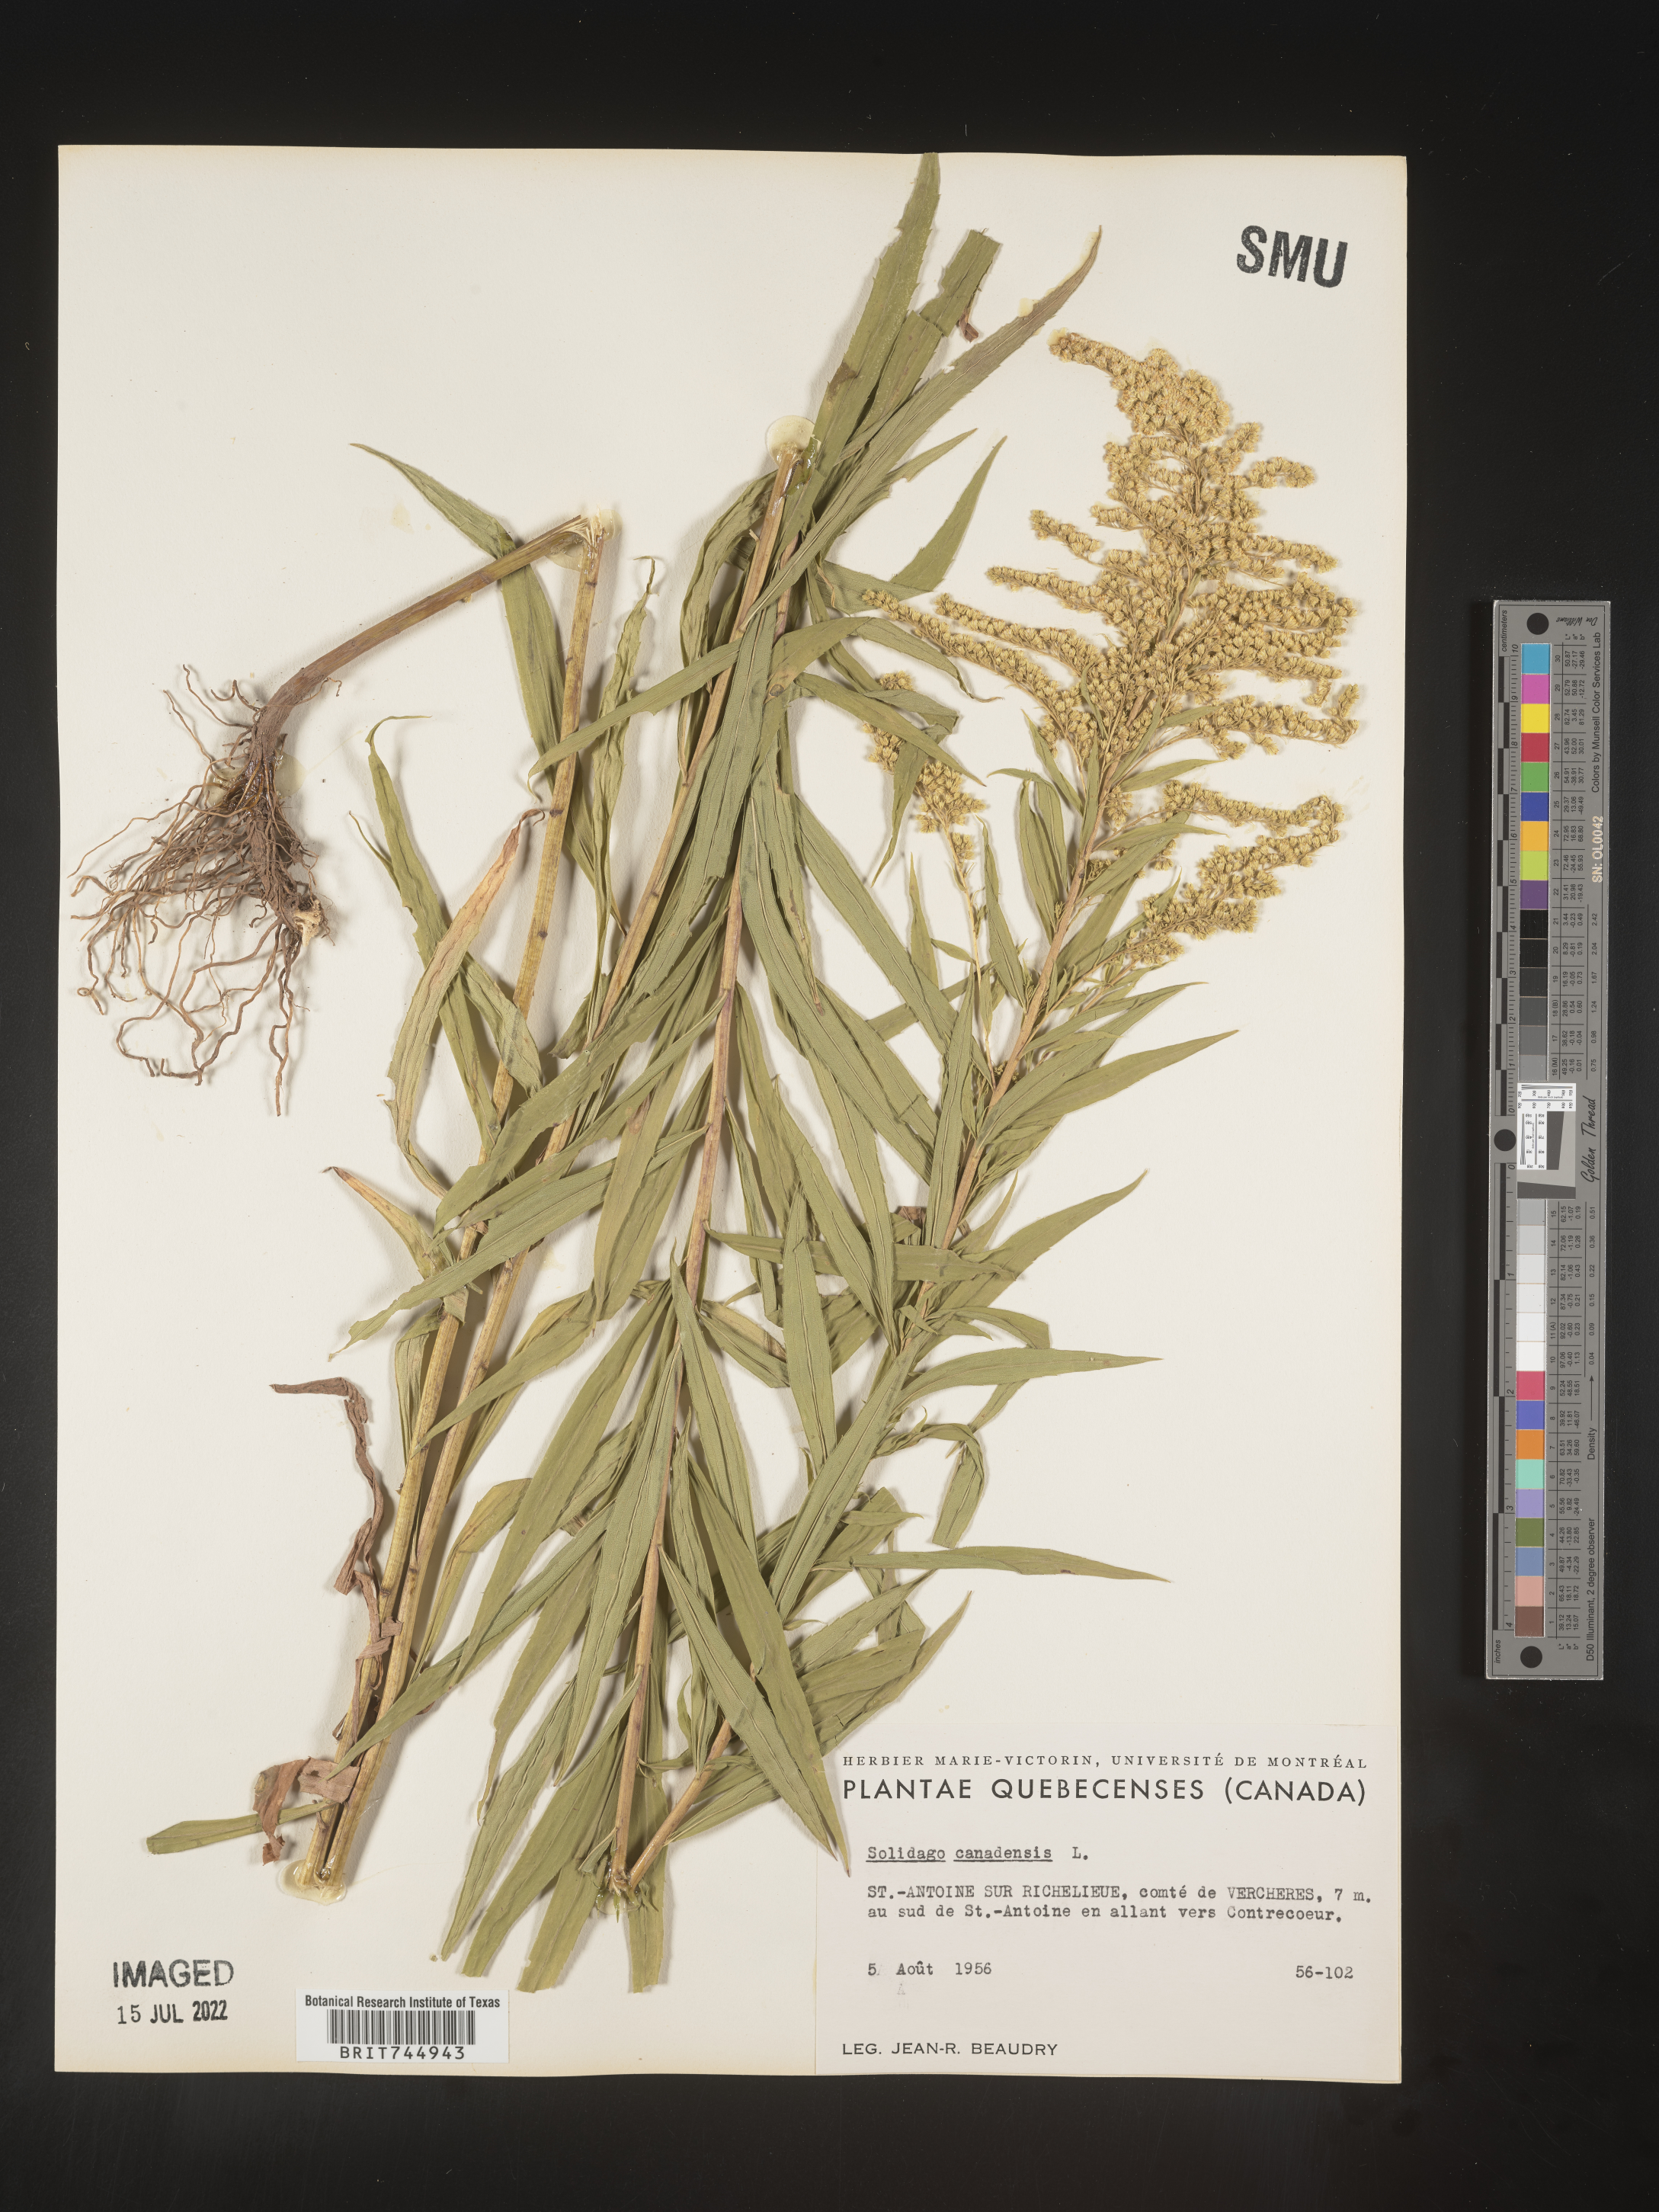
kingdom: Plantae
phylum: Tracheophyta
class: Magnoliopsida
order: Asterales
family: Asteraceae
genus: Solidago
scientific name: Solidago canadensis
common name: Canada goldenrod
